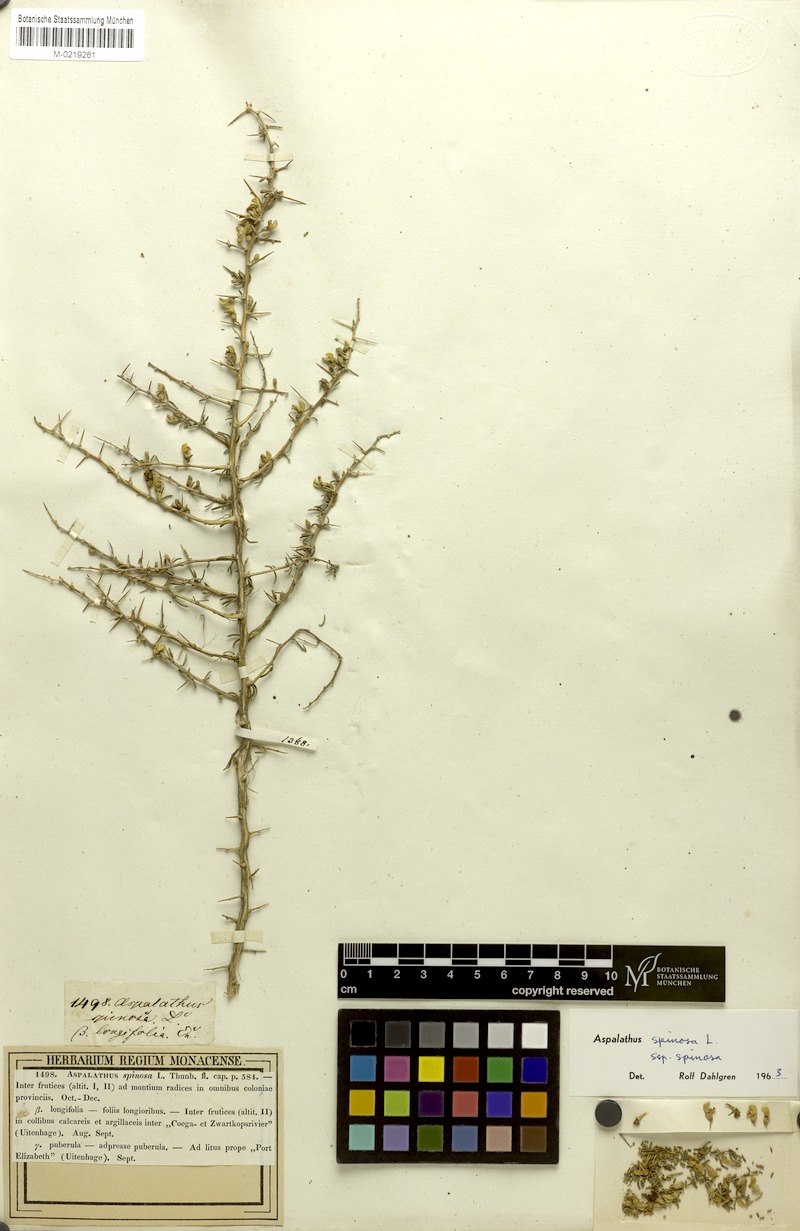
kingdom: Plantae
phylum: Tracheophyta
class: Magnoliopsida
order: Fabales
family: Fabaceae
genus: Aspalathus
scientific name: Aspalathus spinosa
